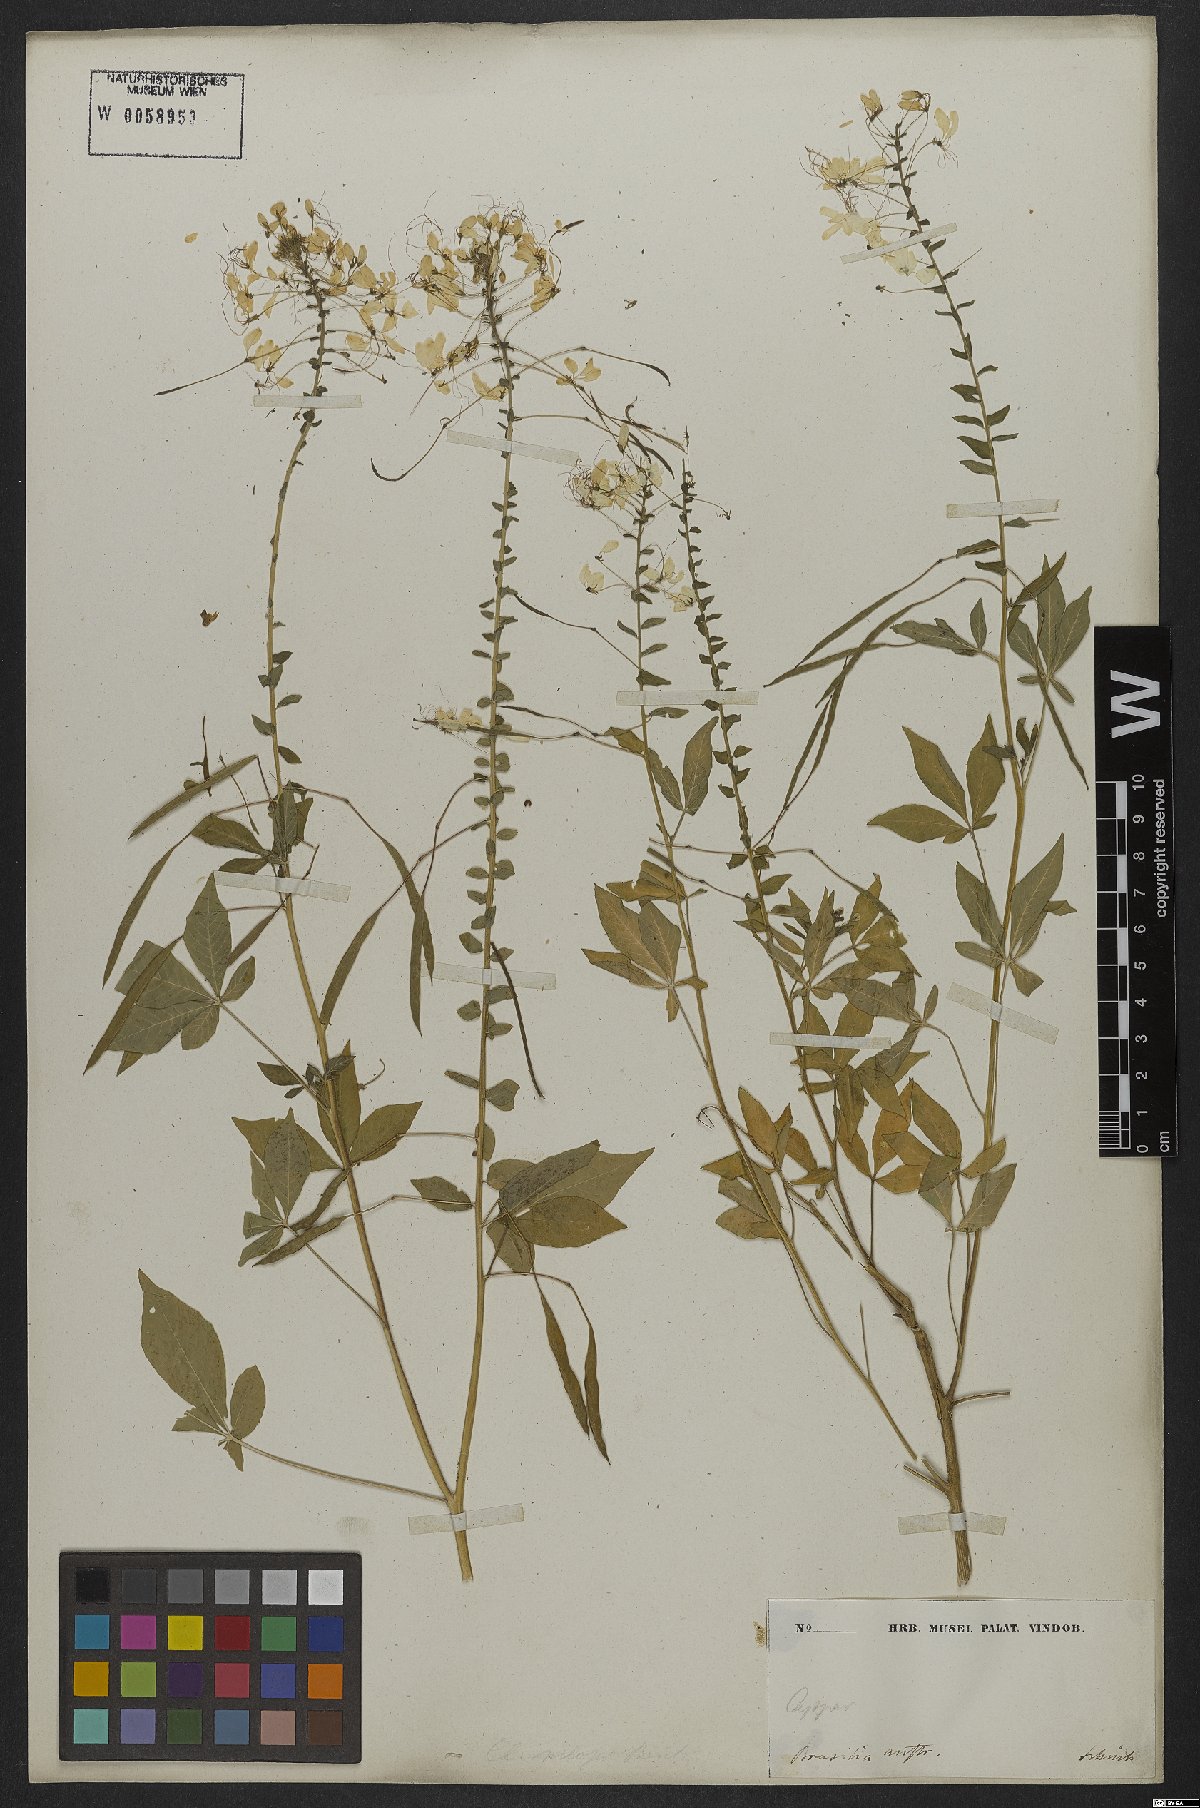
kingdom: Plantae
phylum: Tracheophyta
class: Magnoliopsida
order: Brassicales
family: Cleomaceae
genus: Gynandropsis
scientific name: Gynandropsis gynandra
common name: Spiderwisp
